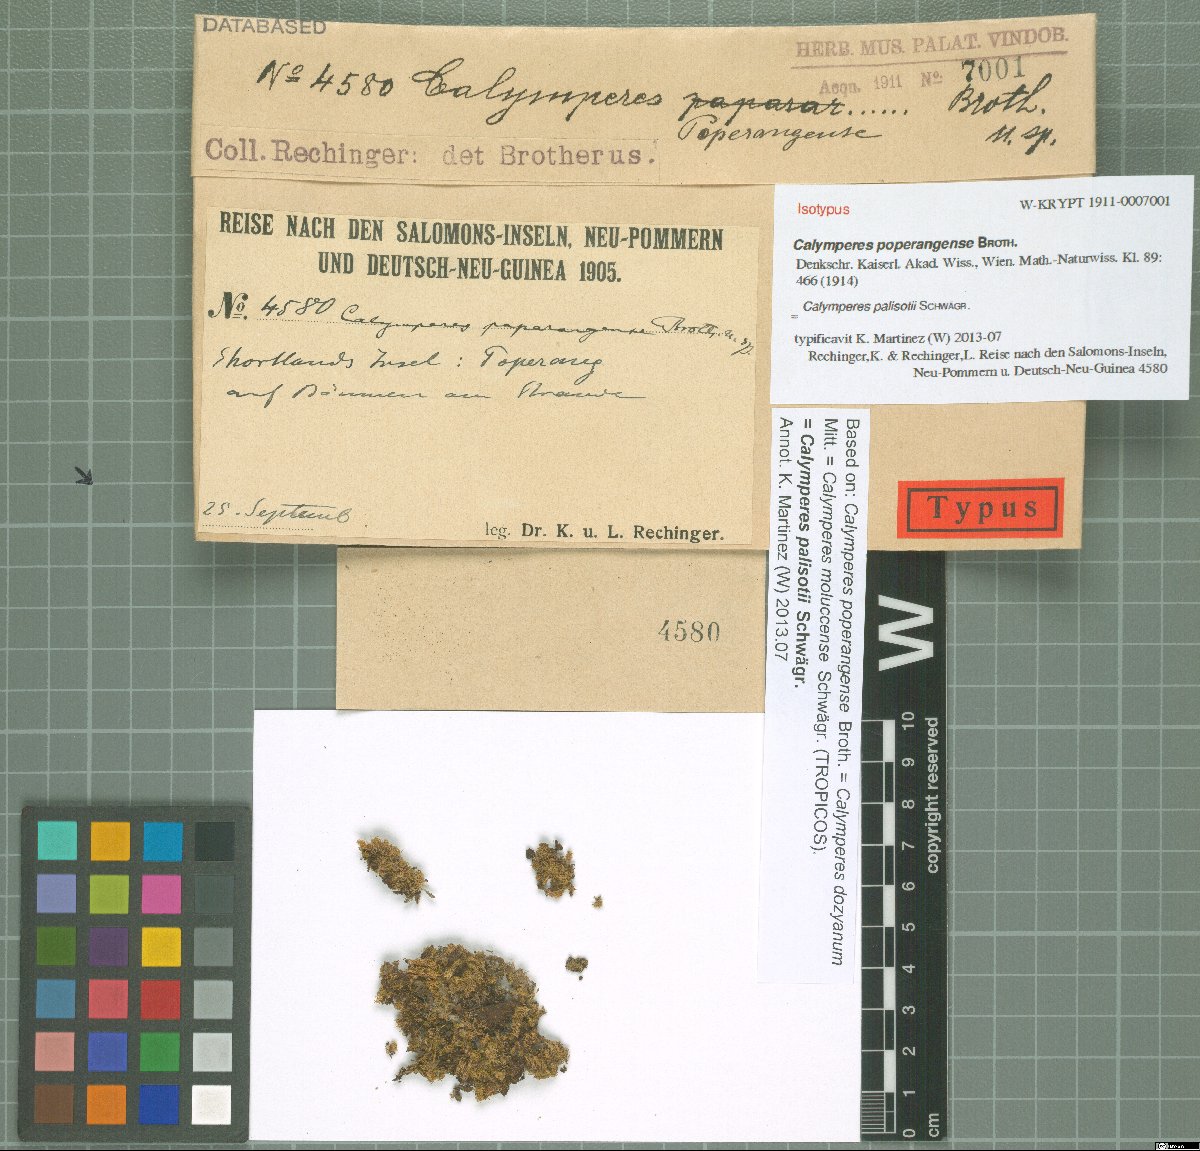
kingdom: Plantae
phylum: Bryophyta
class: Bryopsida
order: Dicranales
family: Calymperaceae
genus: Calymperes
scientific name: Calymperes moluccense
